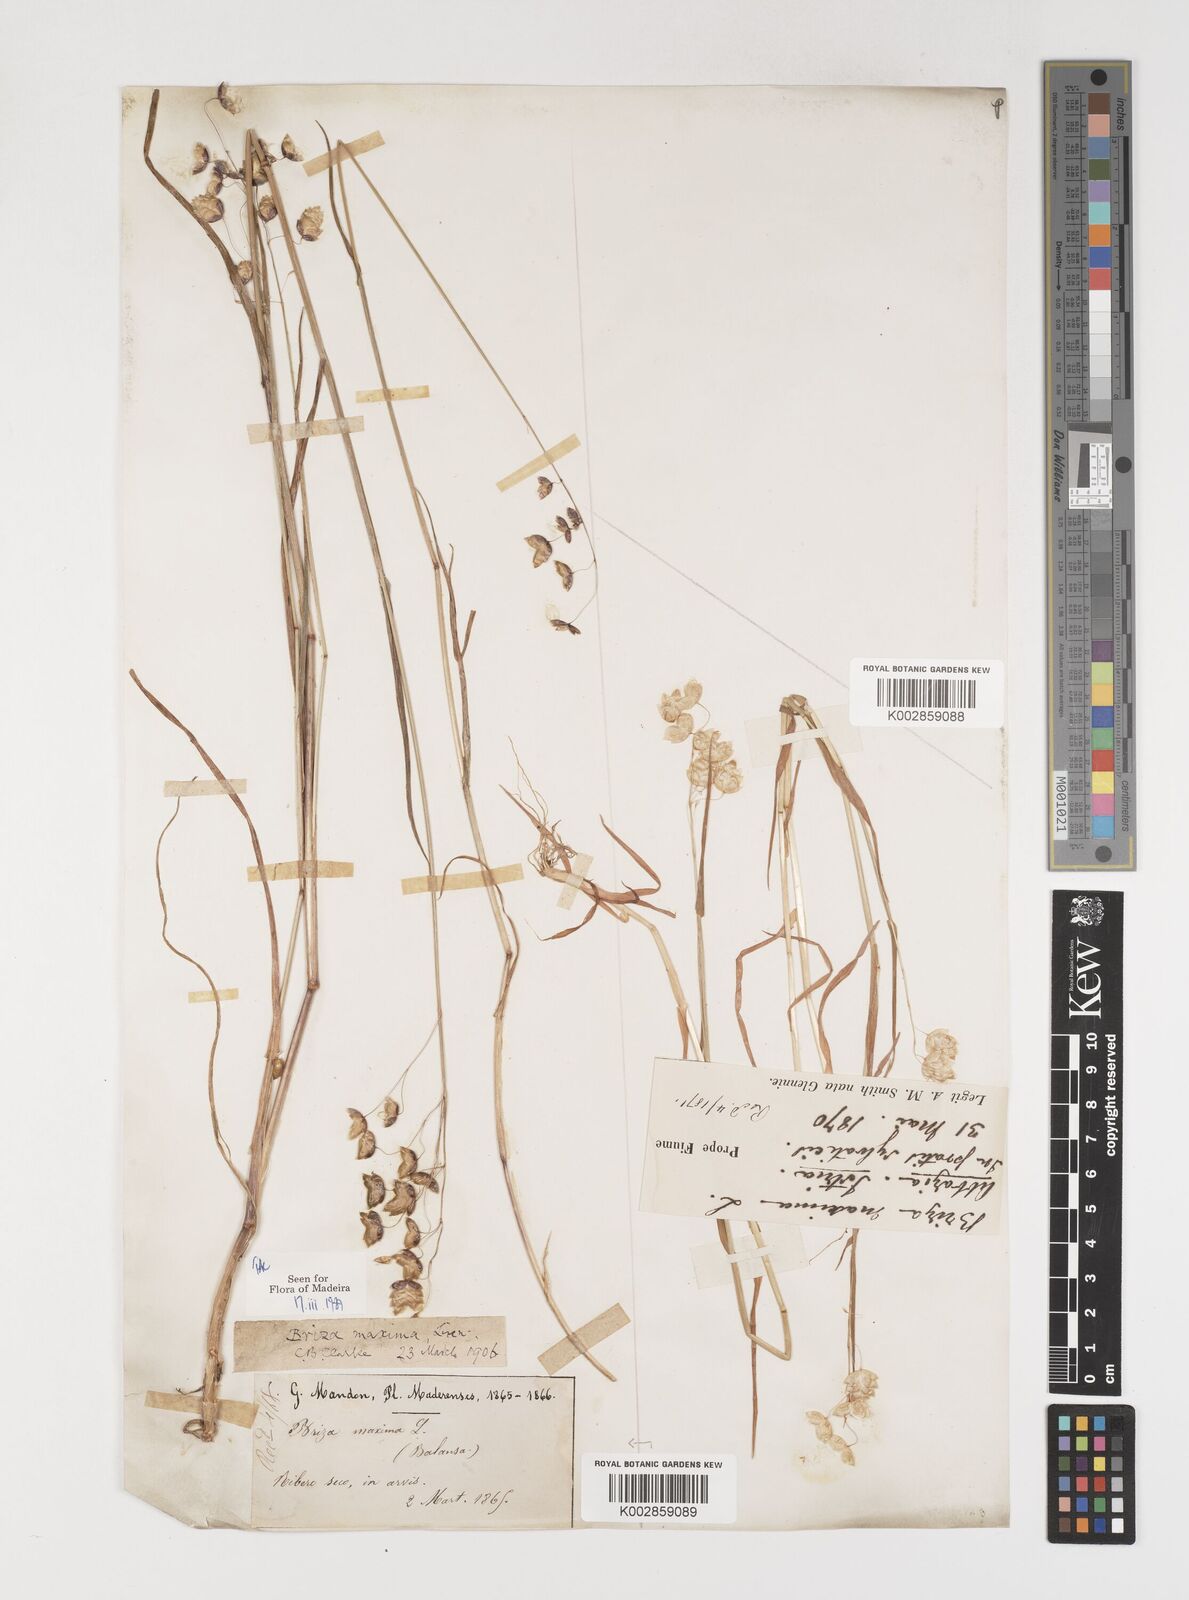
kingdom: Plantae
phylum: Tracheophyta
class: Liliopsida
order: Poales
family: Poaceae
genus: Briza
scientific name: Briza maxima
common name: Big quakinggrass
